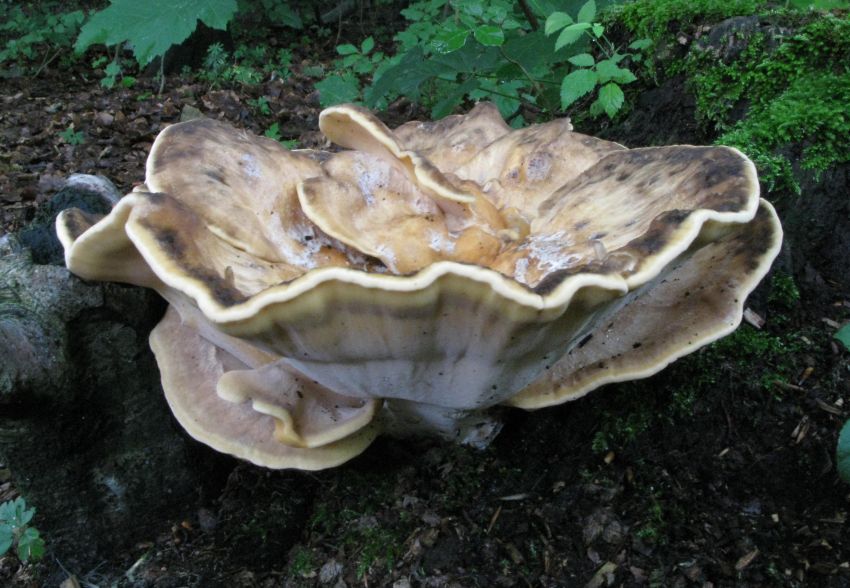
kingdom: Fungi
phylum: Basidiomycota
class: Agaricomycetes
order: Polyporales
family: Meripilaceae
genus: Meripilus
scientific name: Meripilus giganteus
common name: kæmpeporesvamp
